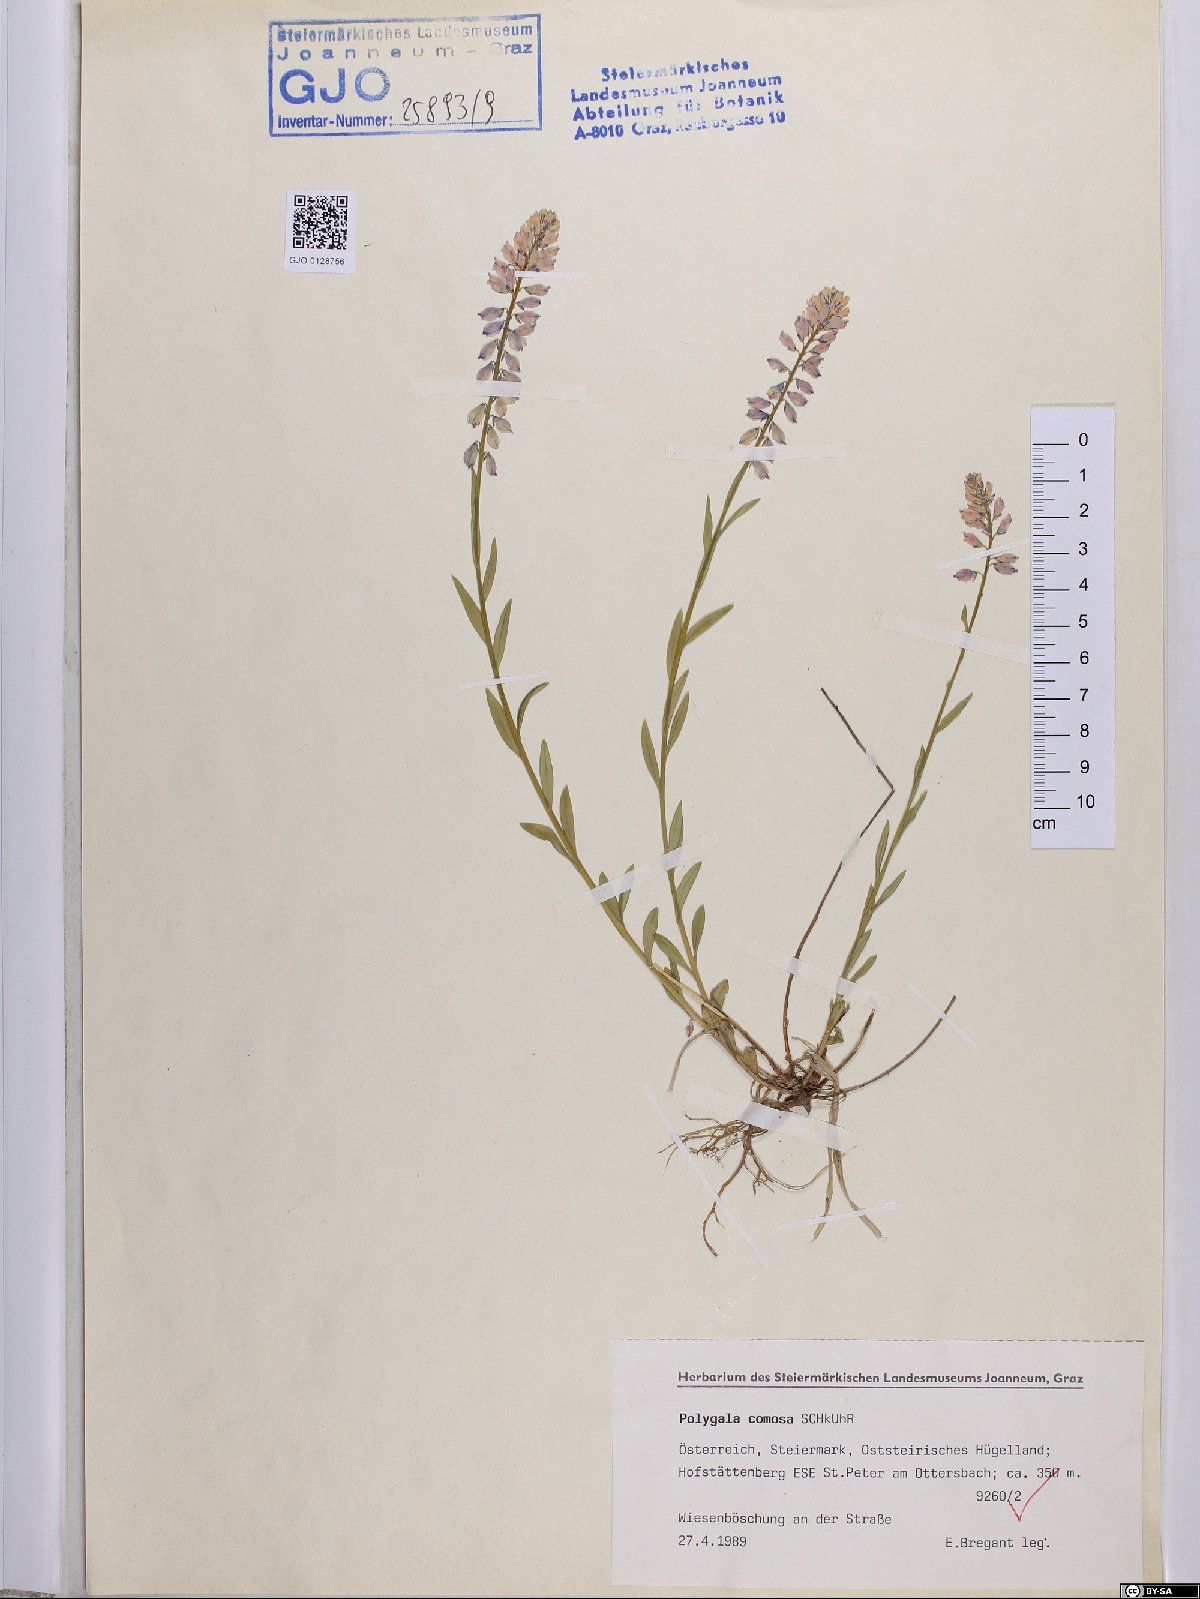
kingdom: Plantae
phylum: Tracheophyta
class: Magnoliopsida
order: Fabales
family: Polygalaceae
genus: Polygala
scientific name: Polygala comosa
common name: Tufted milkwort
